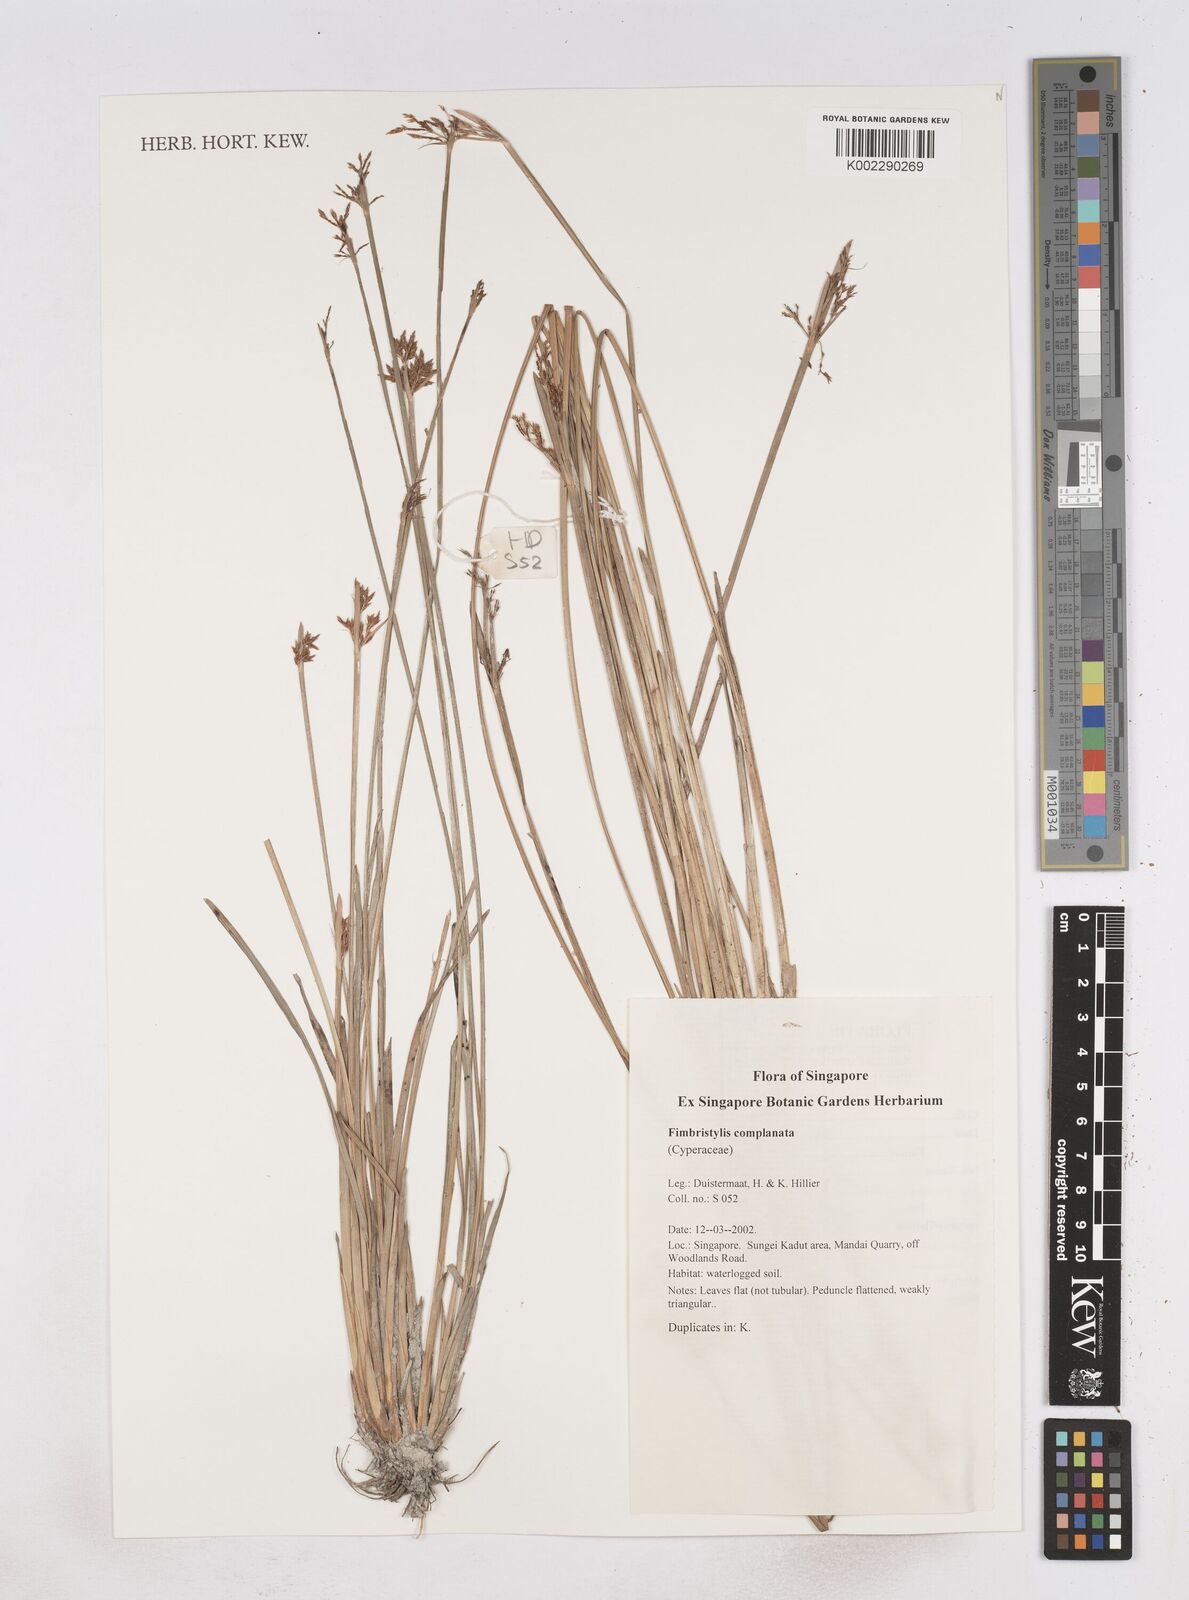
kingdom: Plantae
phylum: Tracheophyta
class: Liliopsida
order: Poales
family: Cyperaceae
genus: Fimbristylis
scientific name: Fimbristylis complanata
